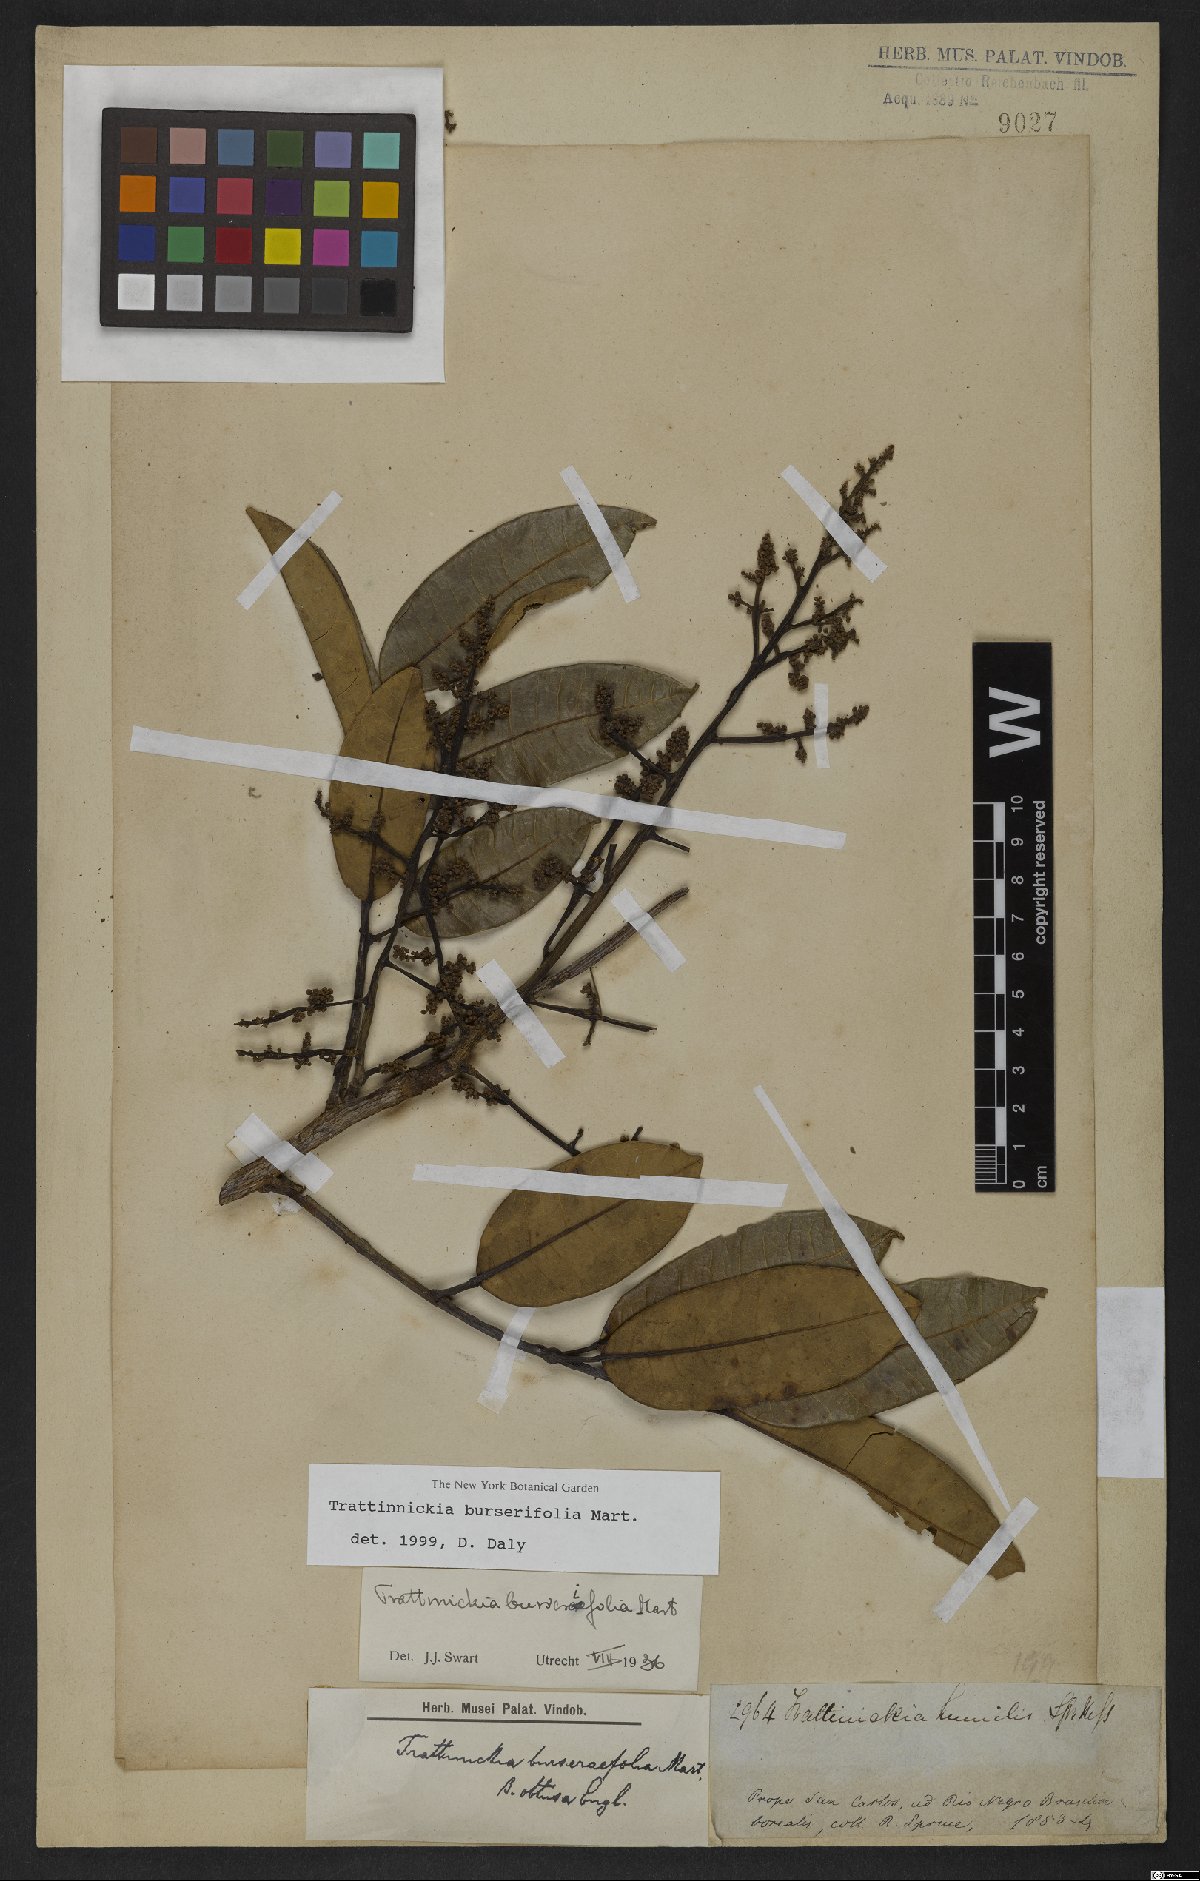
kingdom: Plantae
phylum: Tracheophyta
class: Magnoliopsida
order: Sapindales
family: Burseraceae
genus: Trattinnickia
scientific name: Trattinnickia burserifolia
